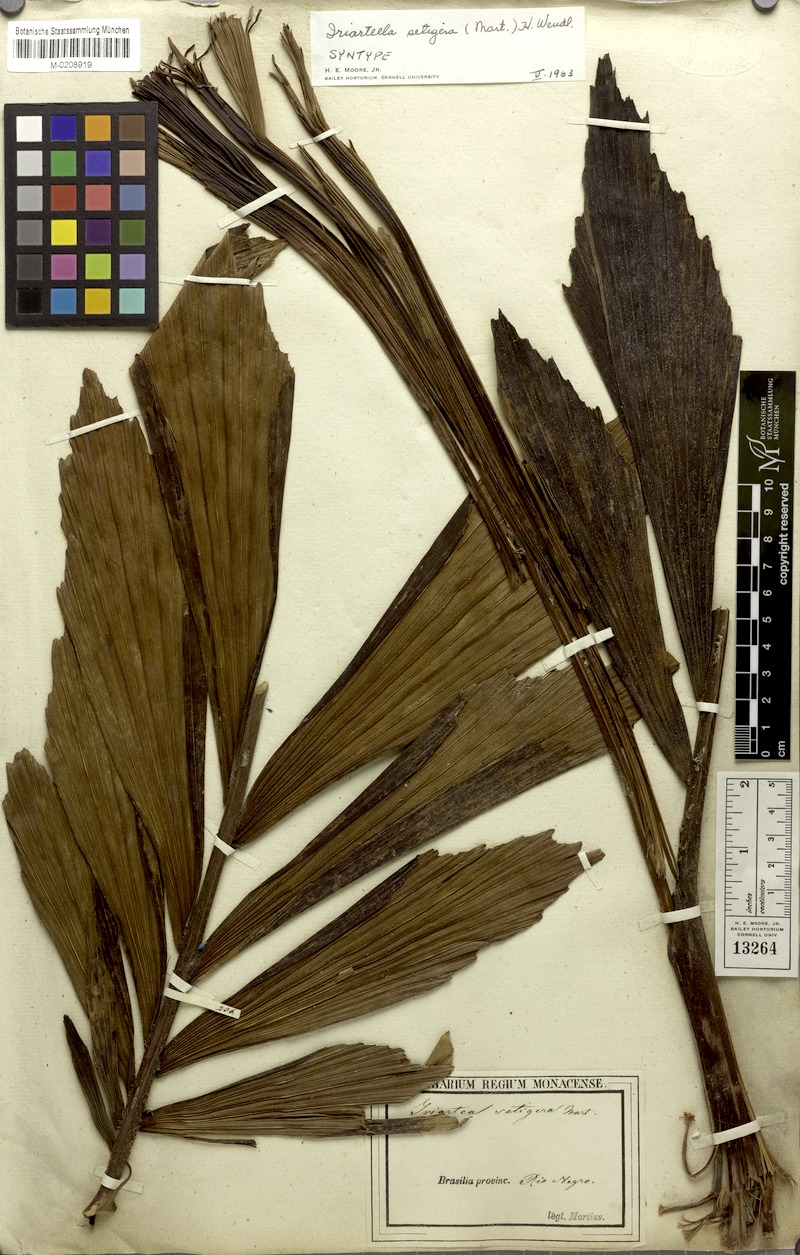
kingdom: Plantae
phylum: Tracheophyta
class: Liliopsida
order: Arecales
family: Arecaceae
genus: Iriartella
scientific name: Iriartella setigera
